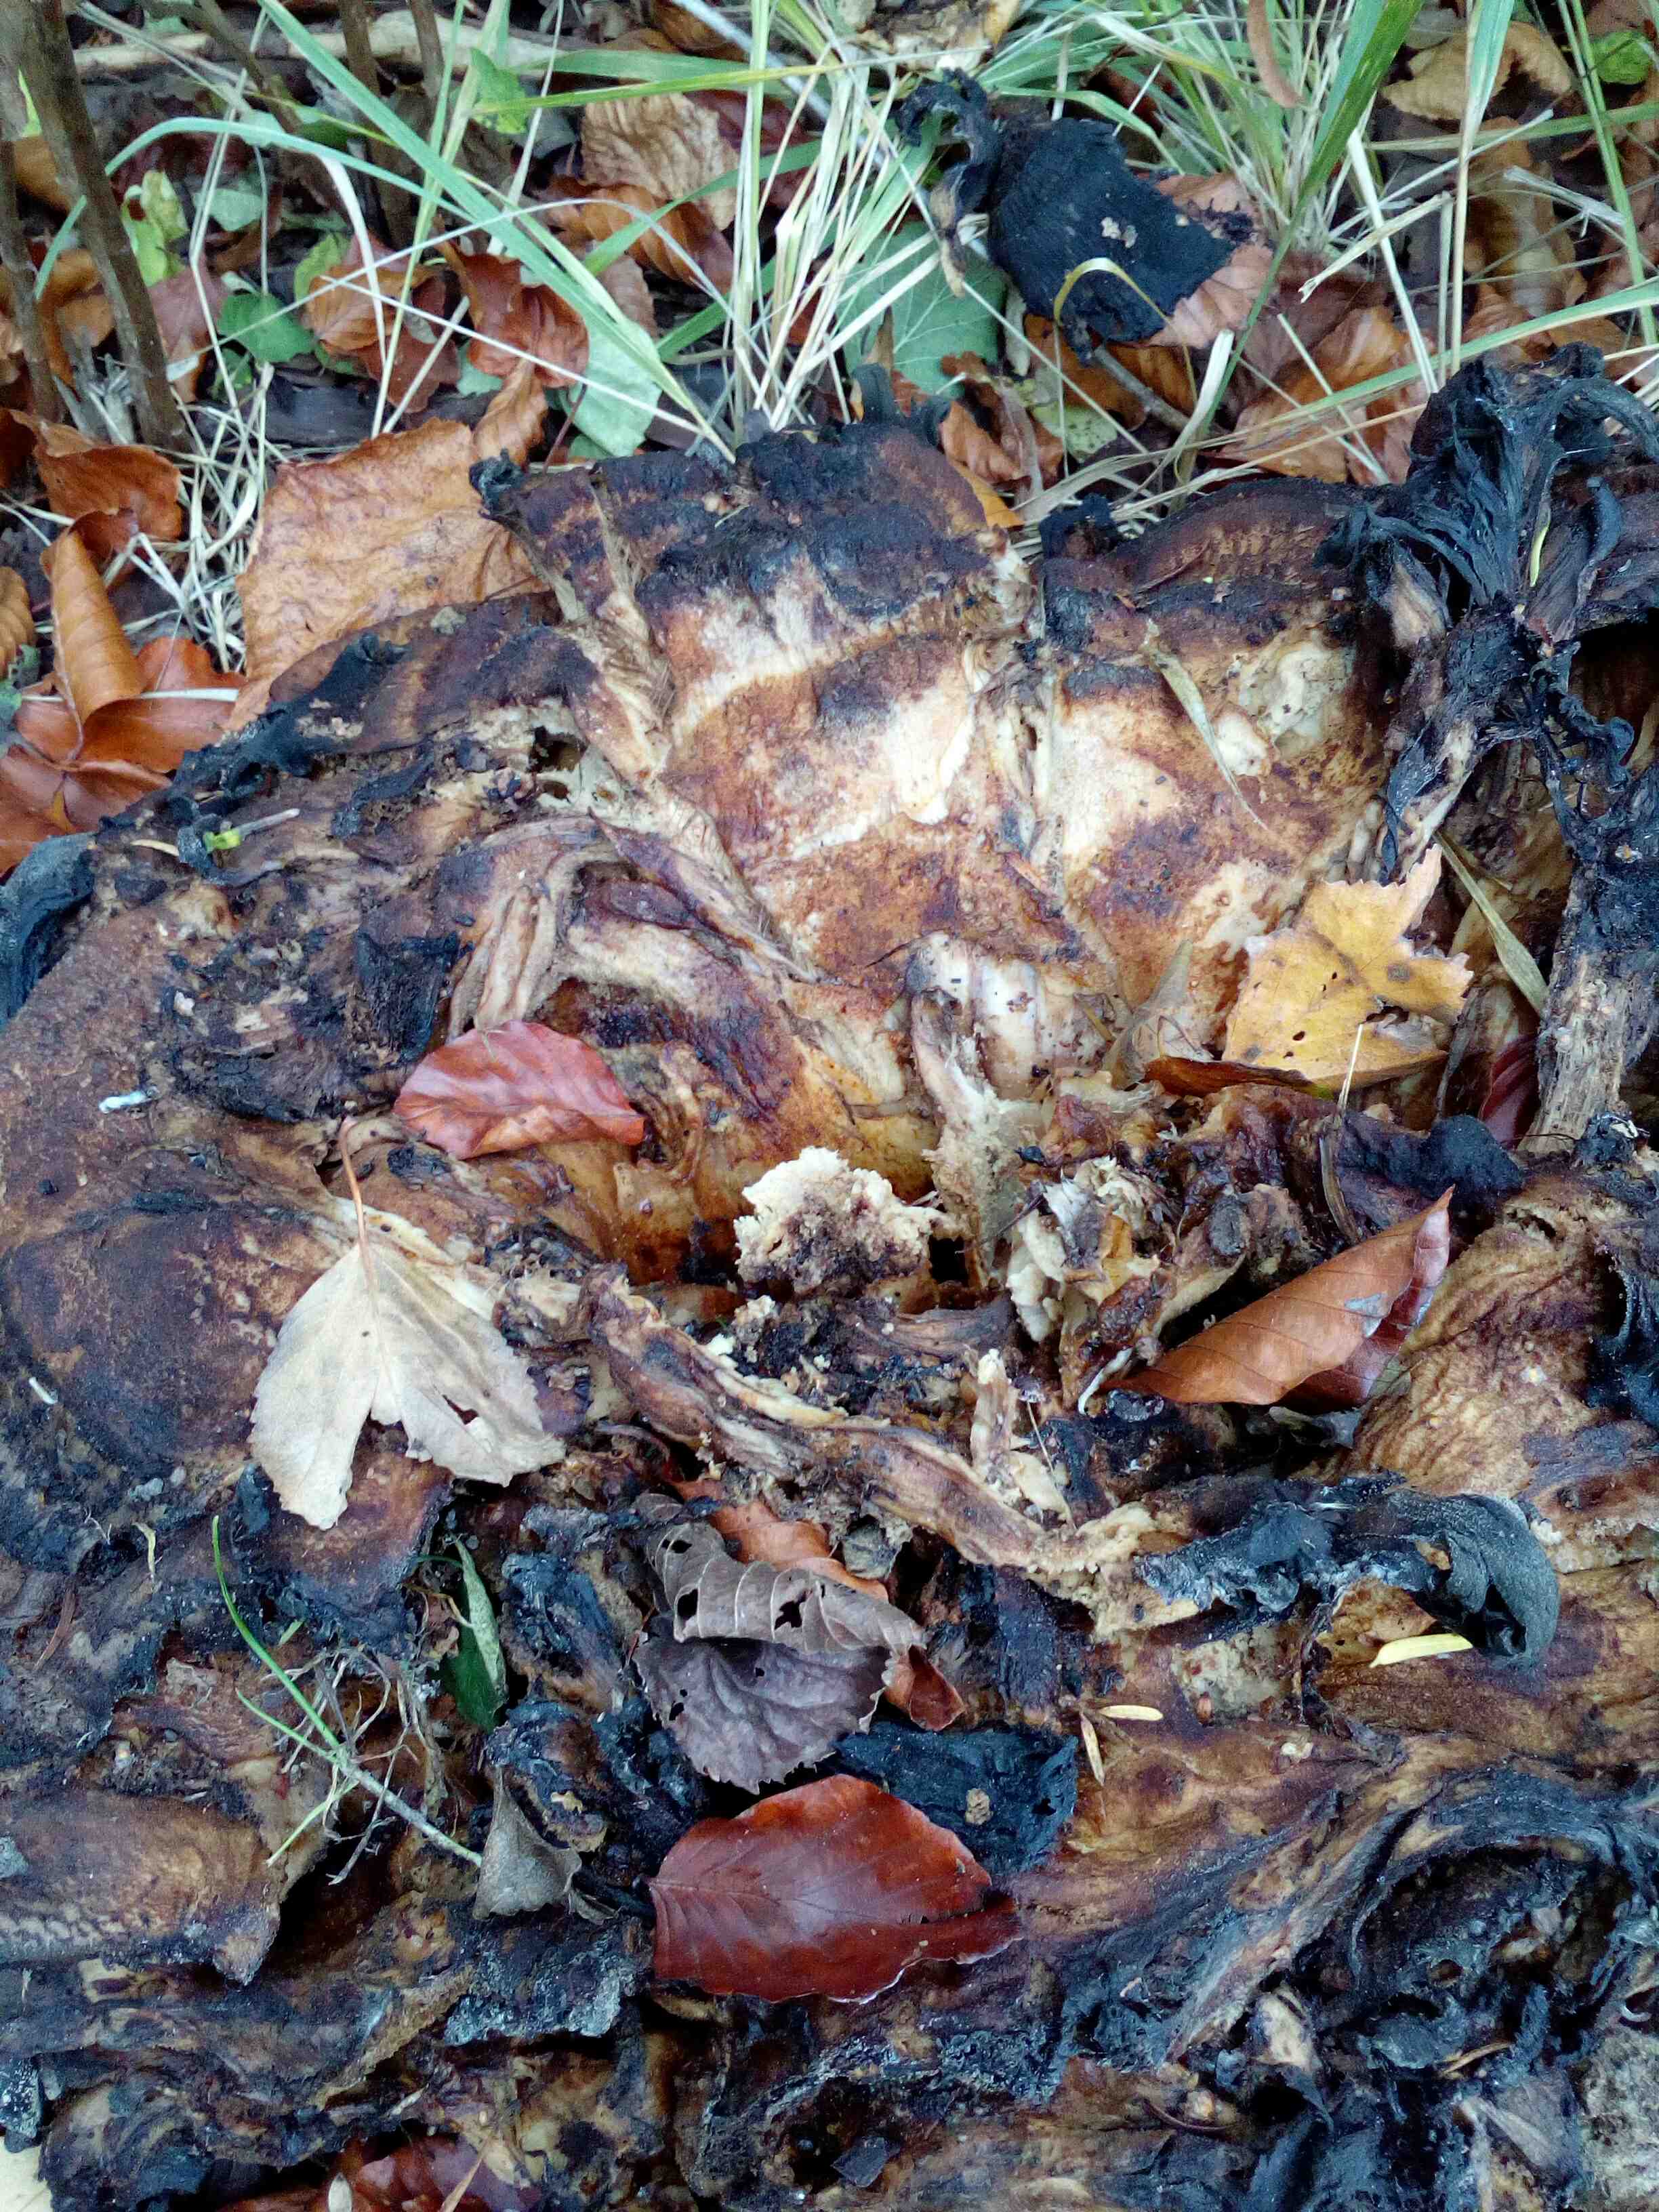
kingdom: Fungi
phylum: Basidiomycota
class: Agaricomycetes
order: Polyporales
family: Meripilaceae
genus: Meripilus
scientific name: Meripilus giganteus
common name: kæmpeporesvamp
